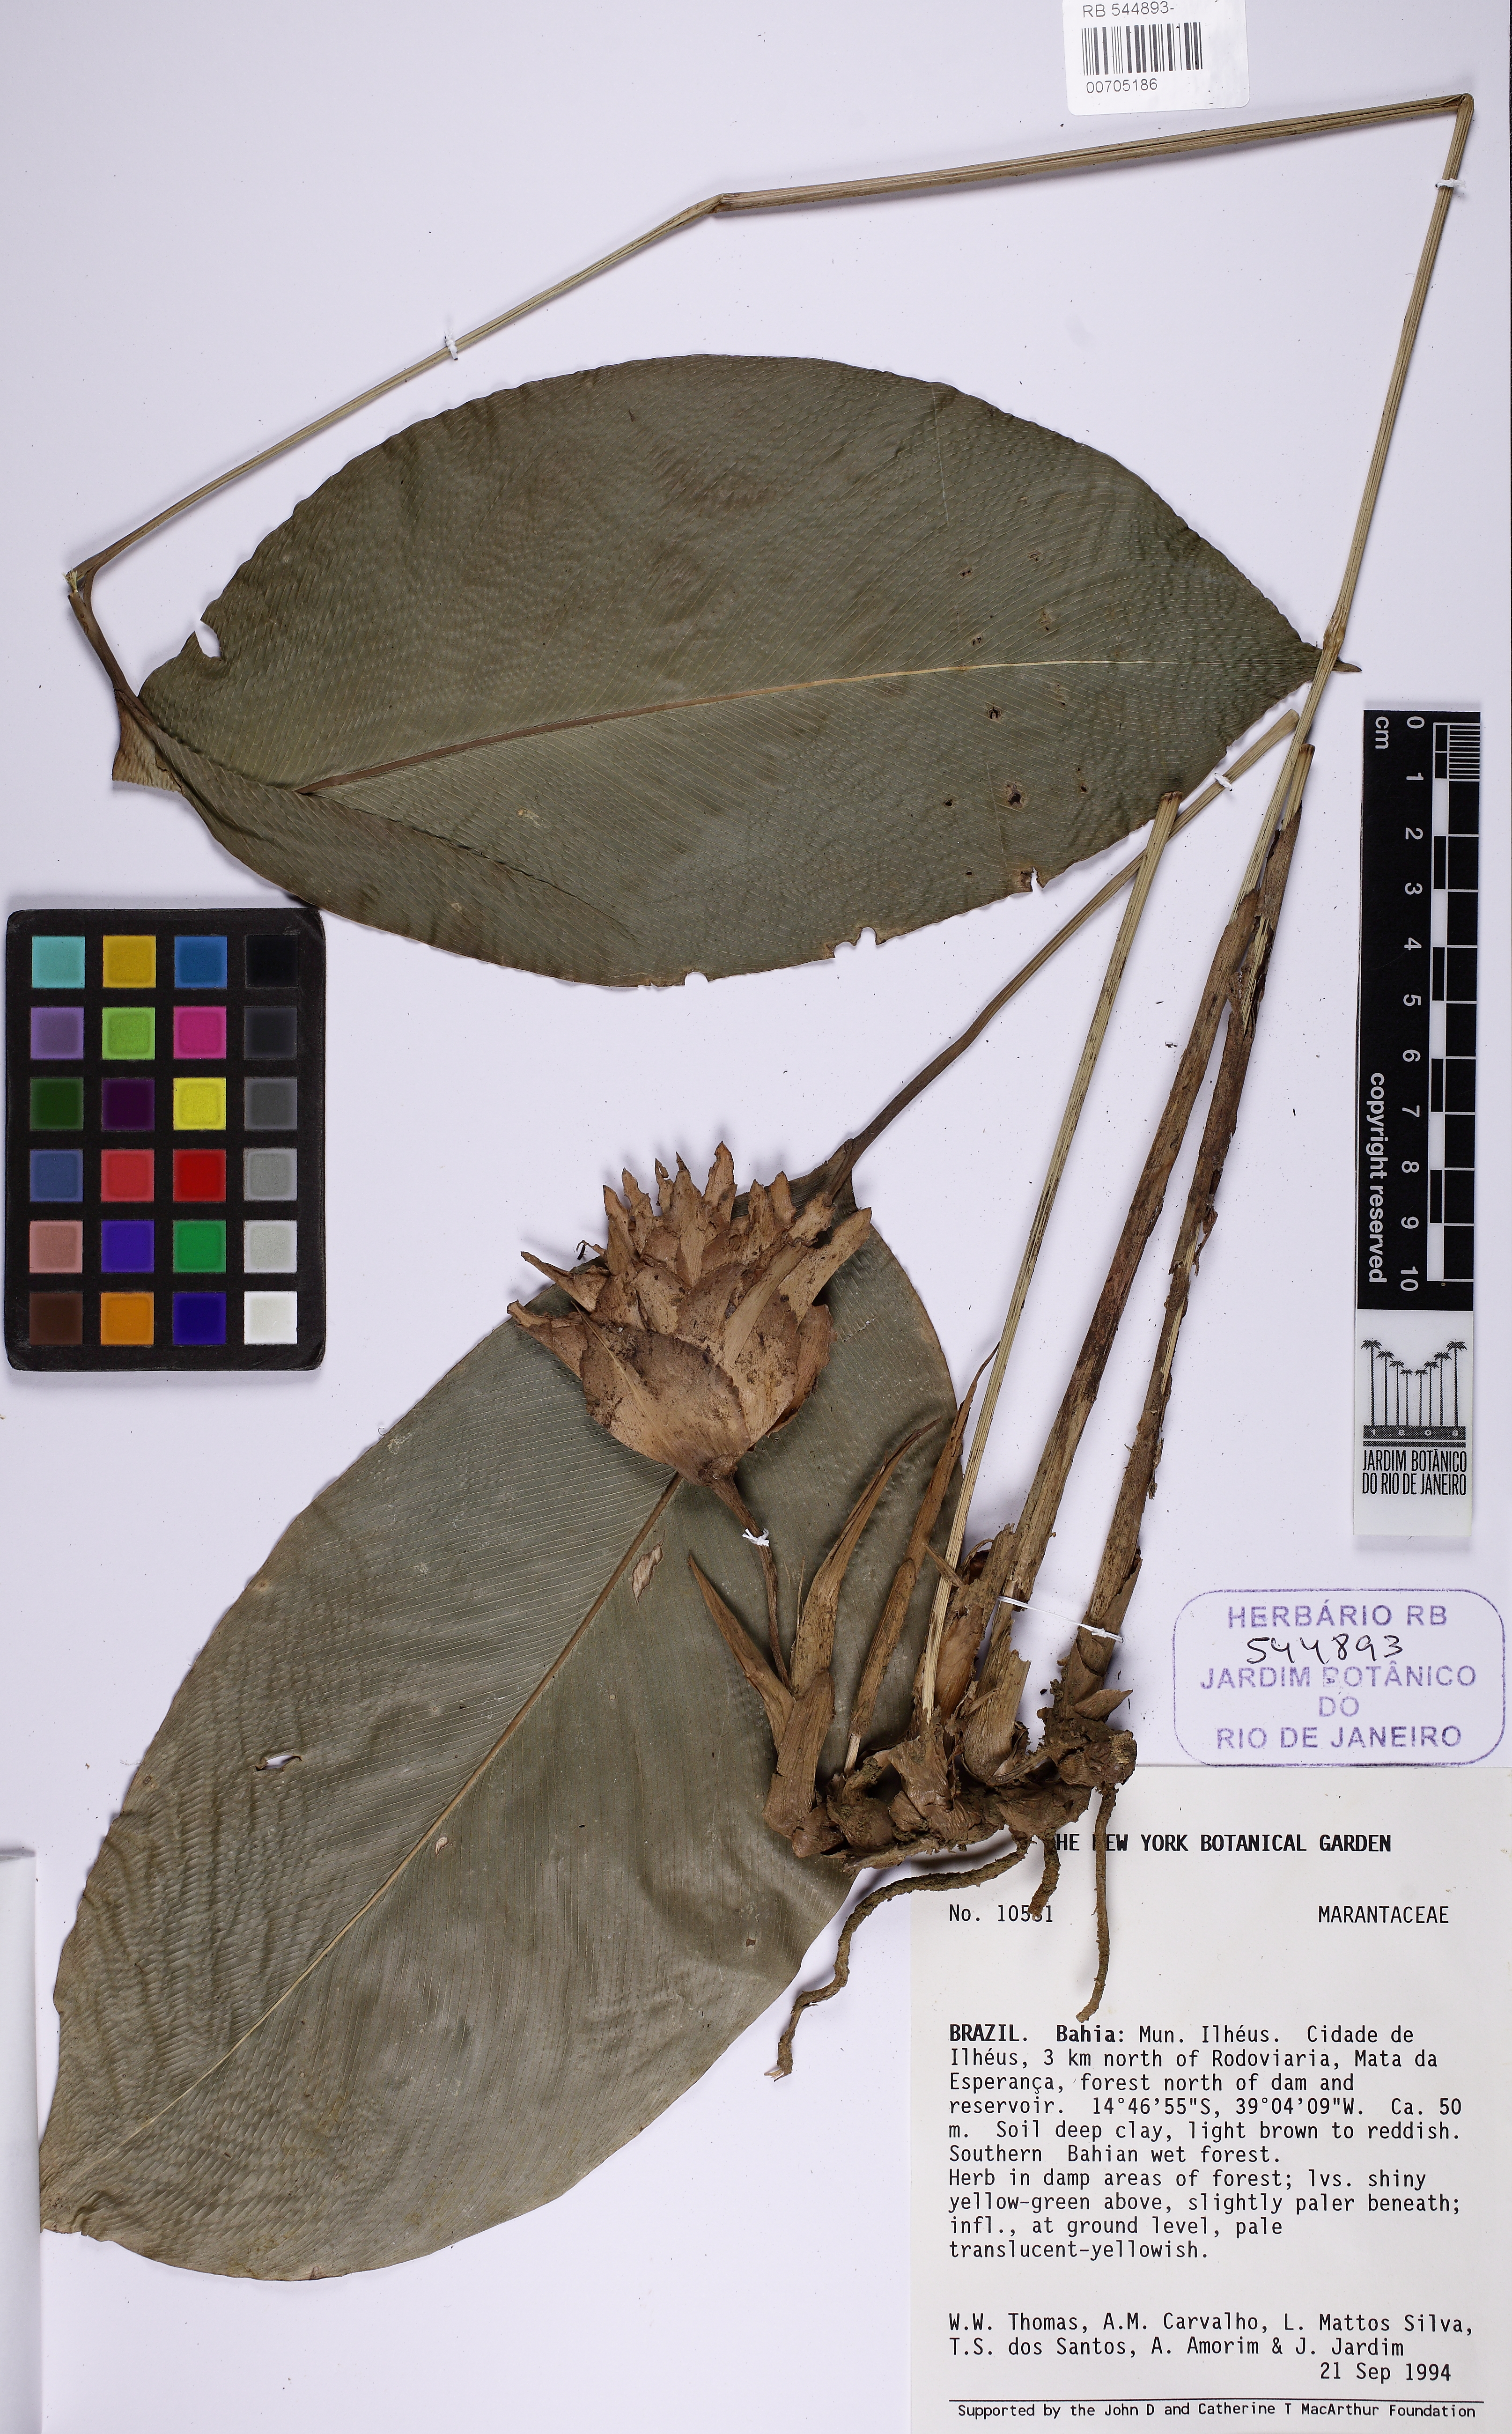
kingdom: Plantae
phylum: Tracheophyta
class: Liliopsida
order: Zingiberales
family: Marantaceae
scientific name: Marantaceae
